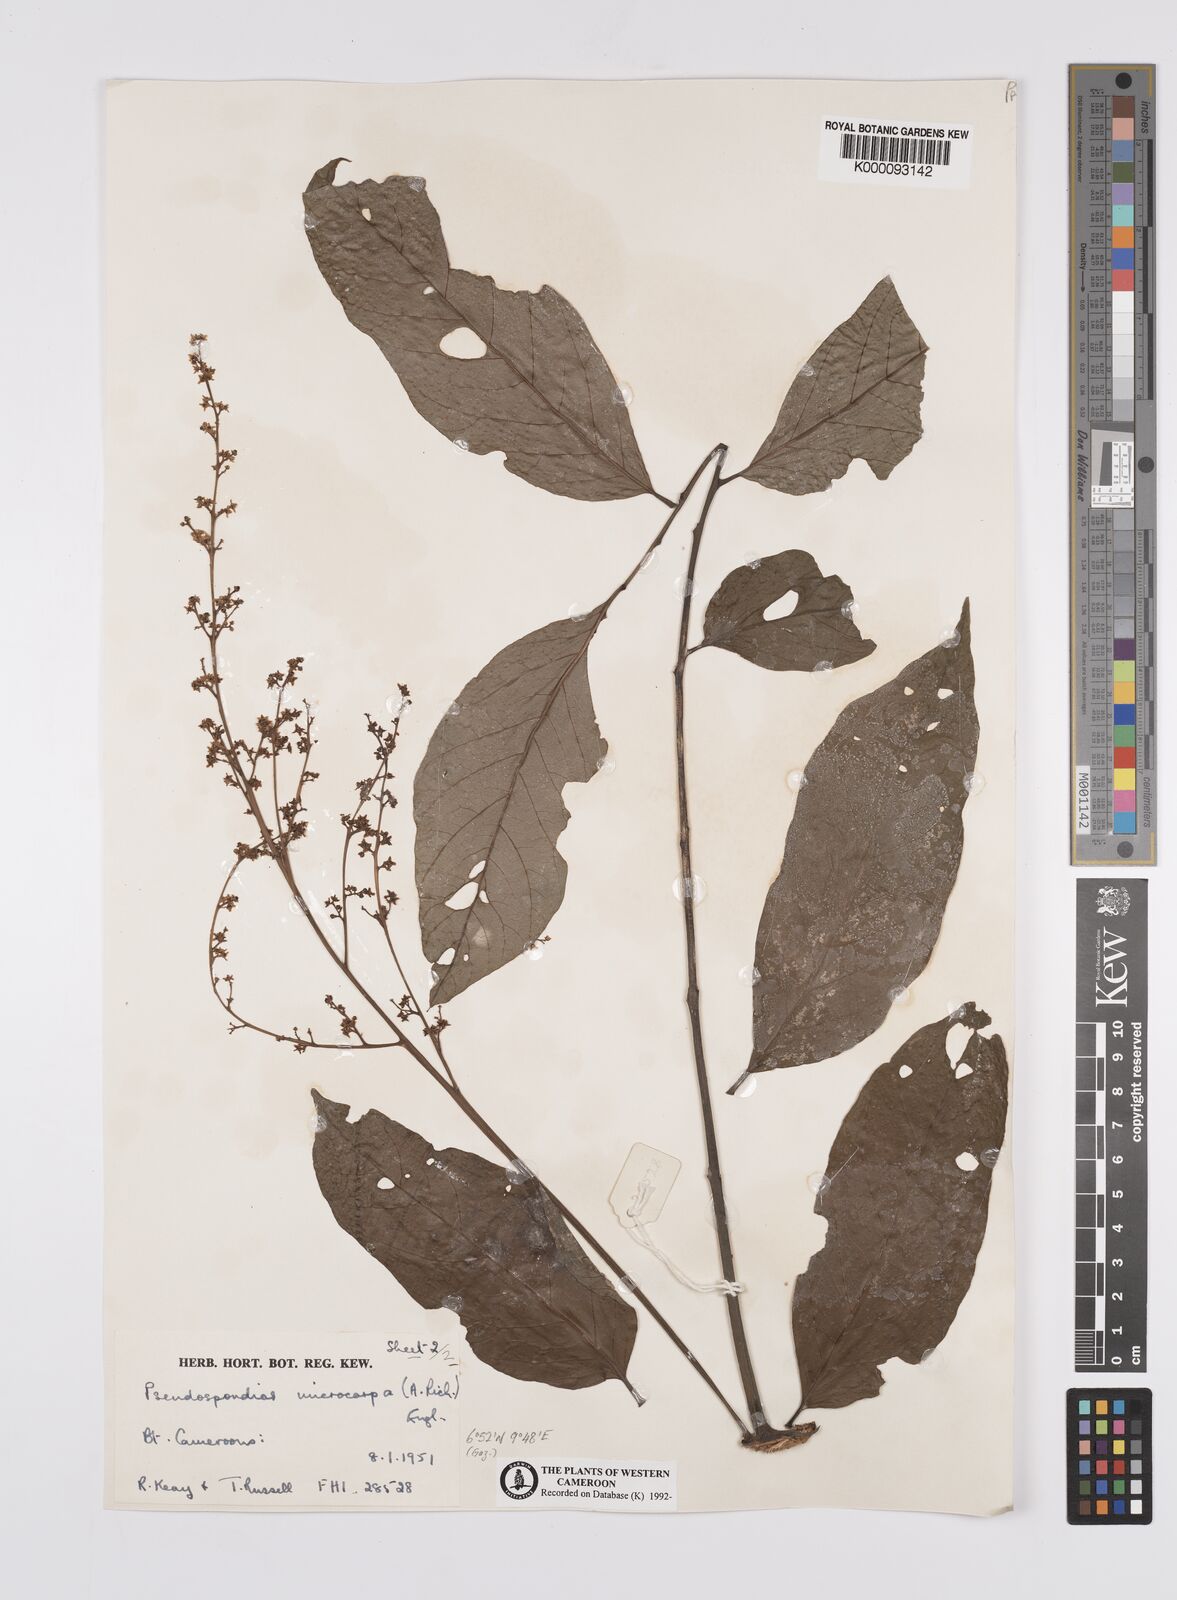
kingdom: Plantae
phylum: Tracheophyta
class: Magnoliopsida
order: Sapindales
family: Anacardiaceae
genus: Pseudospondias
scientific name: Pseudospondias microcarpa
